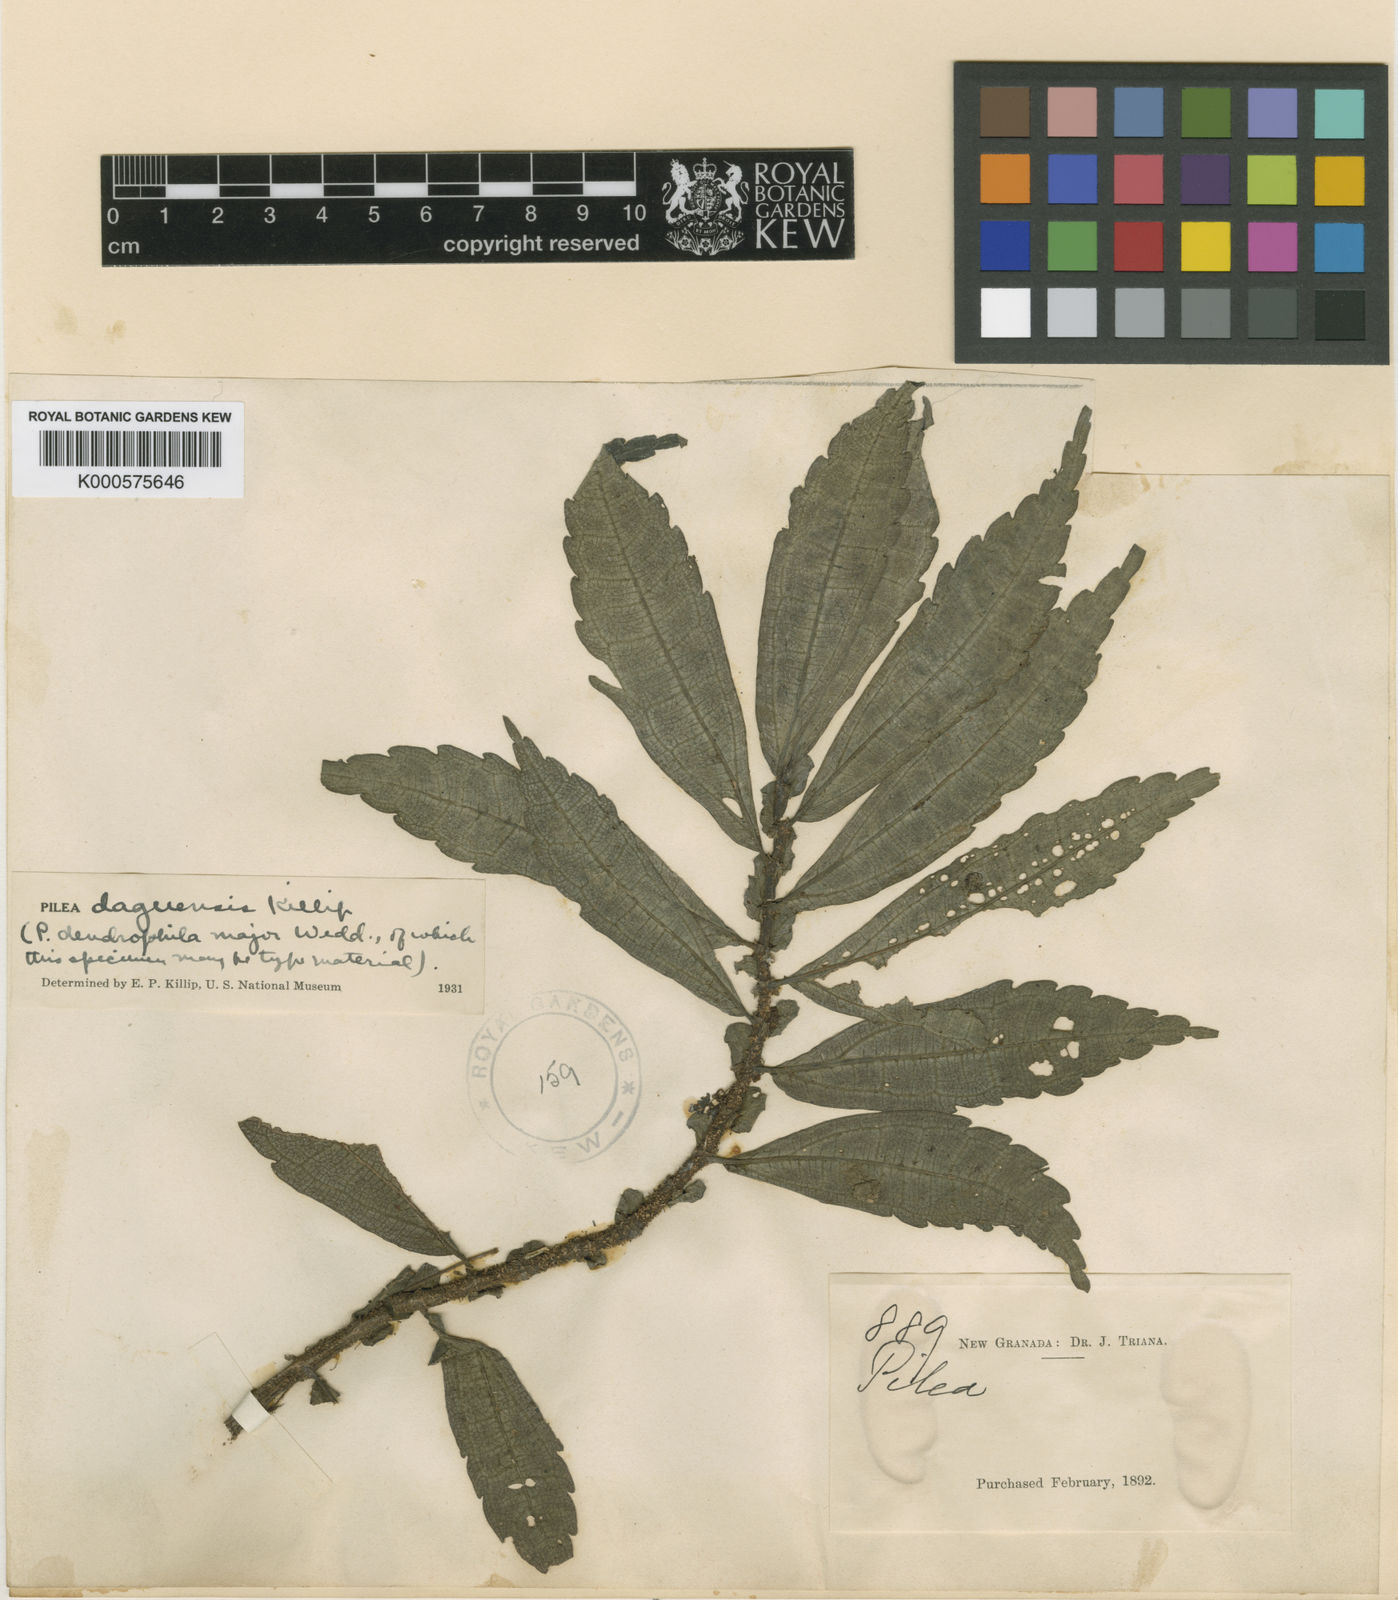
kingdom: Plantae
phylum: Tracheophyta
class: Magnoliopsida
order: Rosales
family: Urticaceae
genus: Pilea
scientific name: Pilea daguensis
